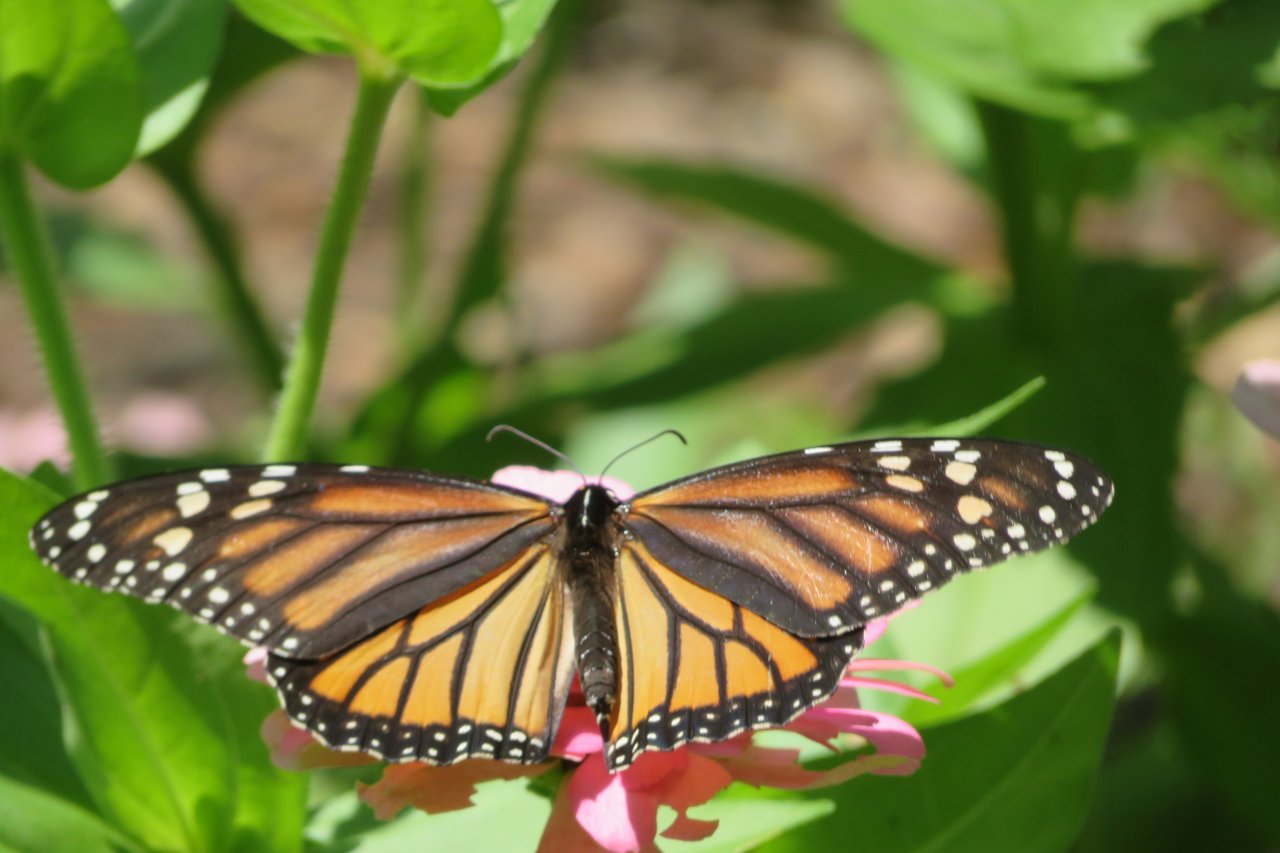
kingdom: Animalia
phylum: Arthropoda
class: Insecta
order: Lepidoptera
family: Nymphalidae
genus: Danaus
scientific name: Danaus plexippus
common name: Monarch
